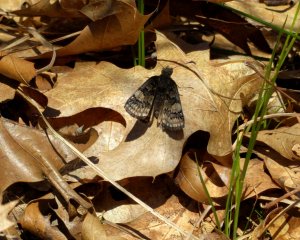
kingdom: Animalia
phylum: Arthropoda
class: Insecta
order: Lepidoptera
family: Hesperiidae
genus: Erynnis
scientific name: Erynnis brizo
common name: Sleepy Duskywing
